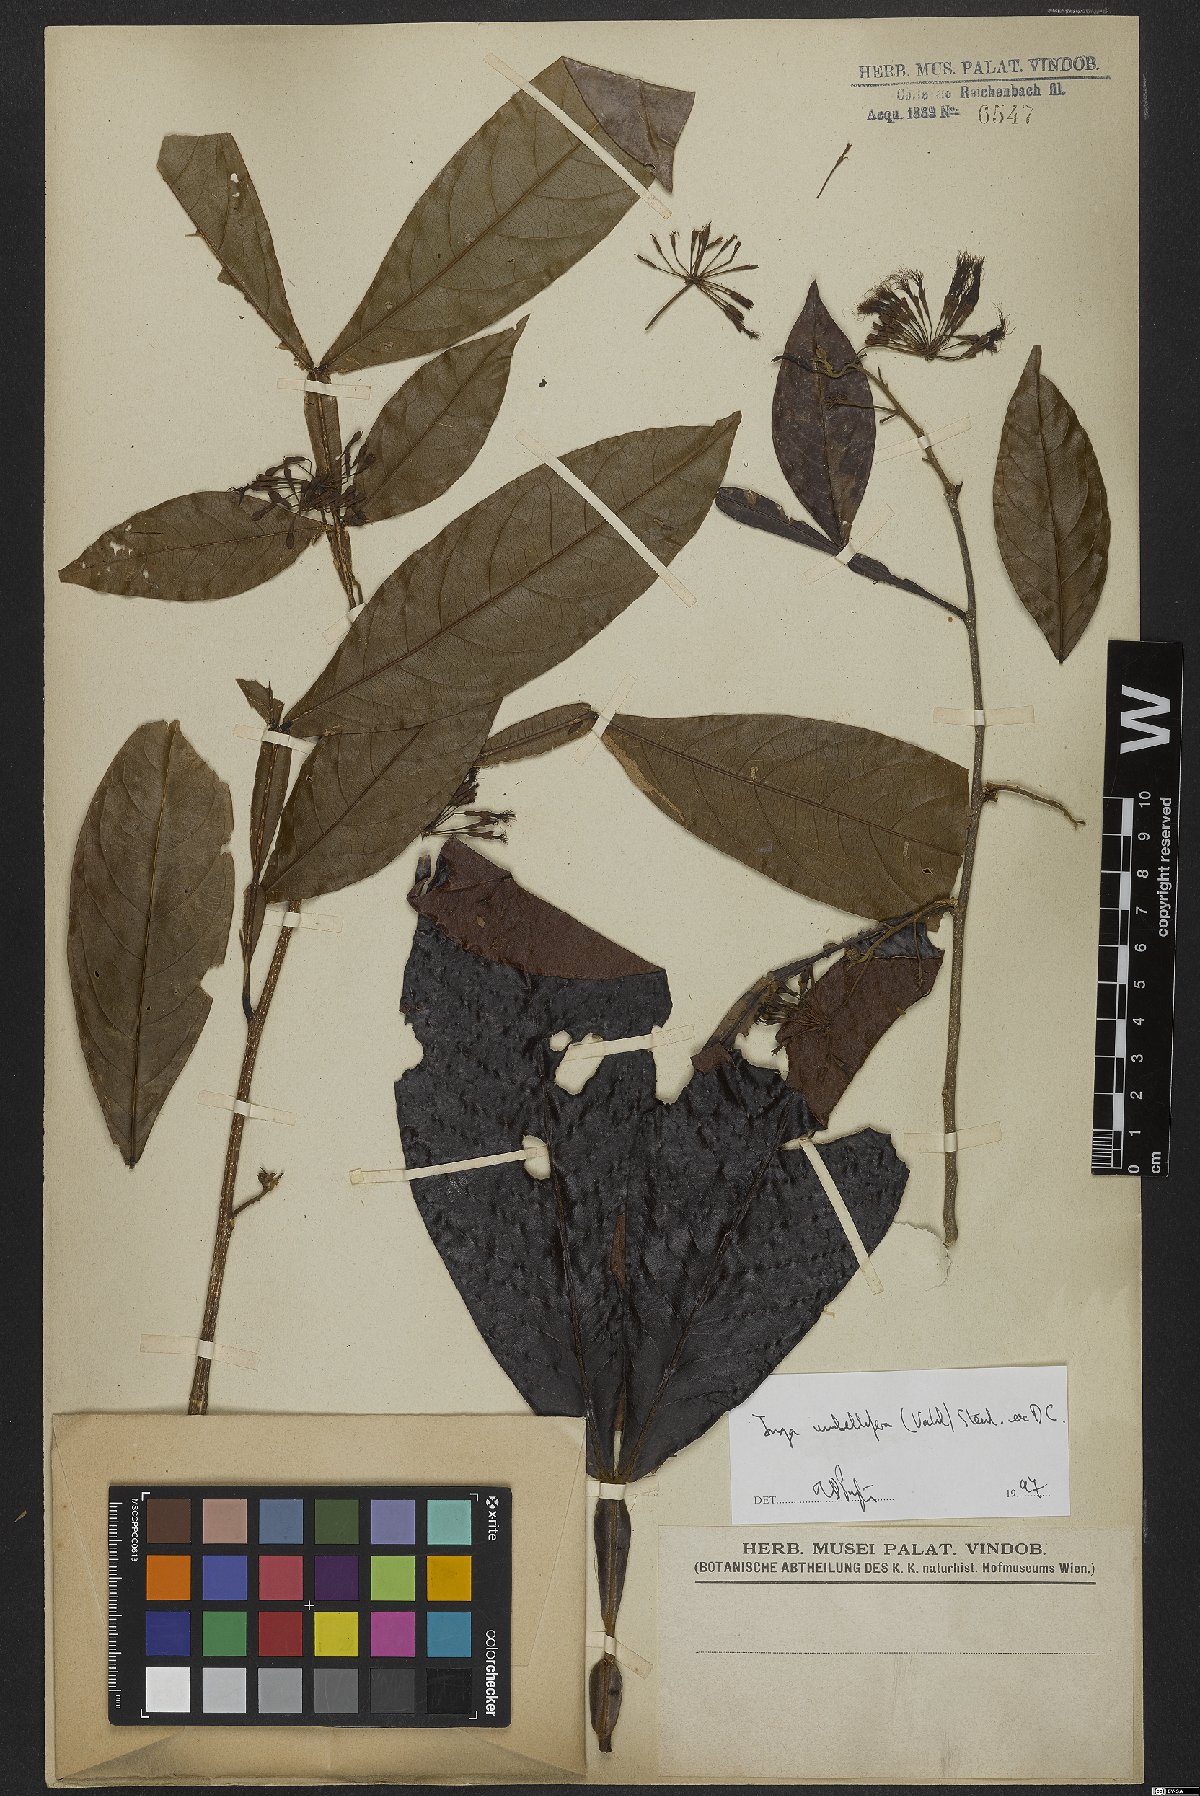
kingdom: Plantae
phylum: Tracheophyta
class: Magnoliopsida
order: Fabales
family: Fabaceae
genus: Inga
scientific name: Inga umbellifera
